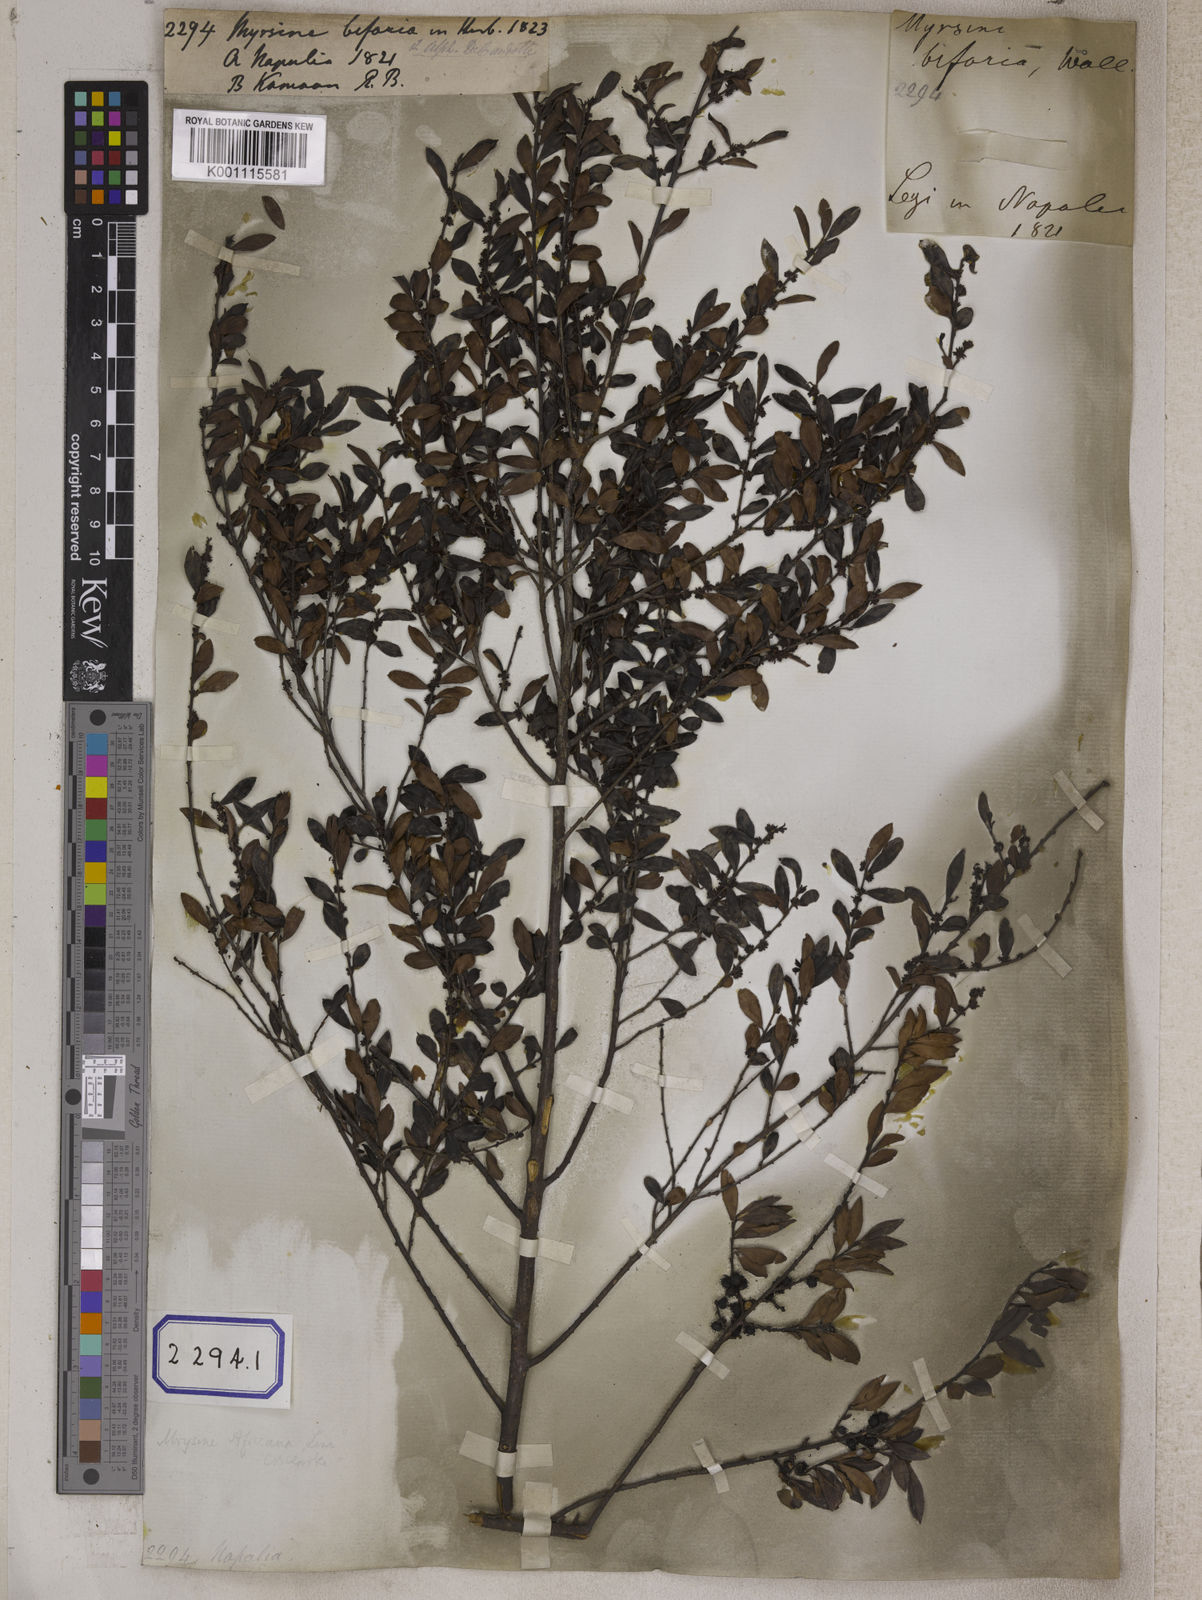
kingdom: Plantae
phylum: Tracheophyta
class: Magnoliopsida
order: Ericales
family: Primulaceae
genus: Myrsine
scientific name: Myrsine africana
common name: African-boxwood
